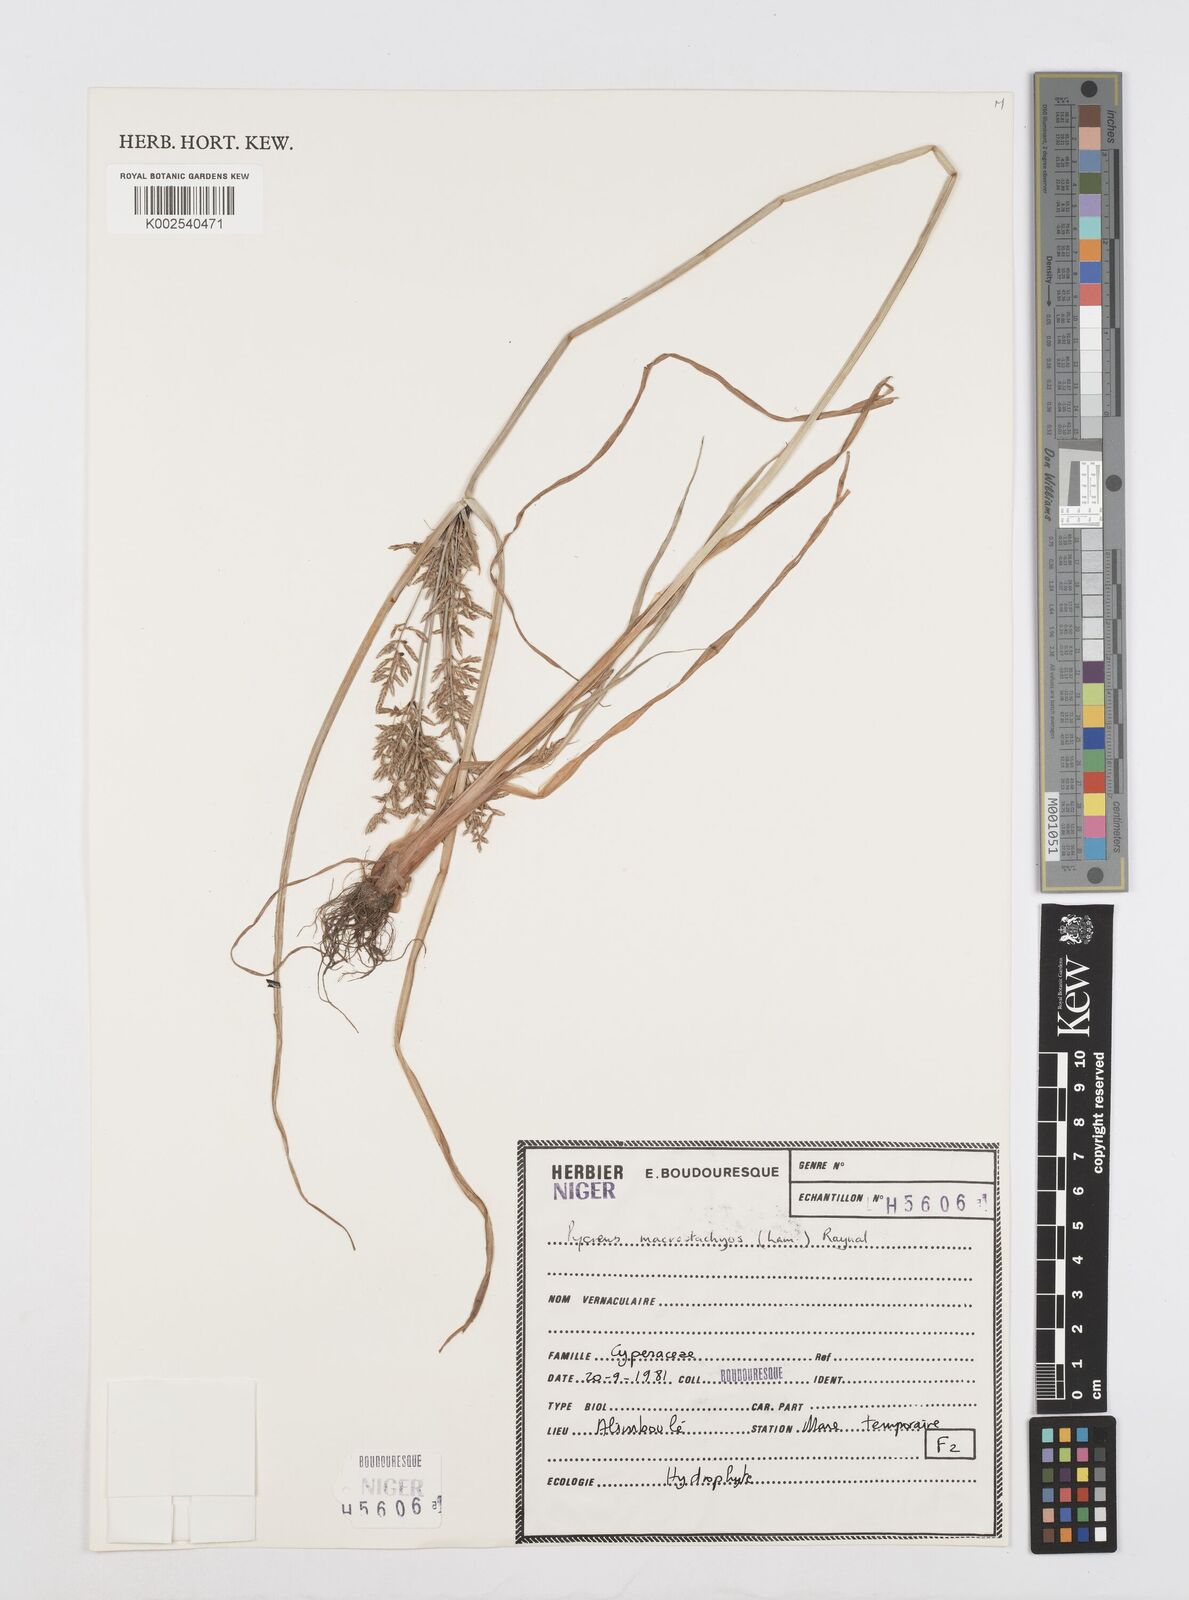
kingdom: Plantae
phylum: Tracheophyta
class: Liliopsida
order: Poales
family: Cyperaceae
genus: Cyperus
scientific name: Cyperus macrostachyos
